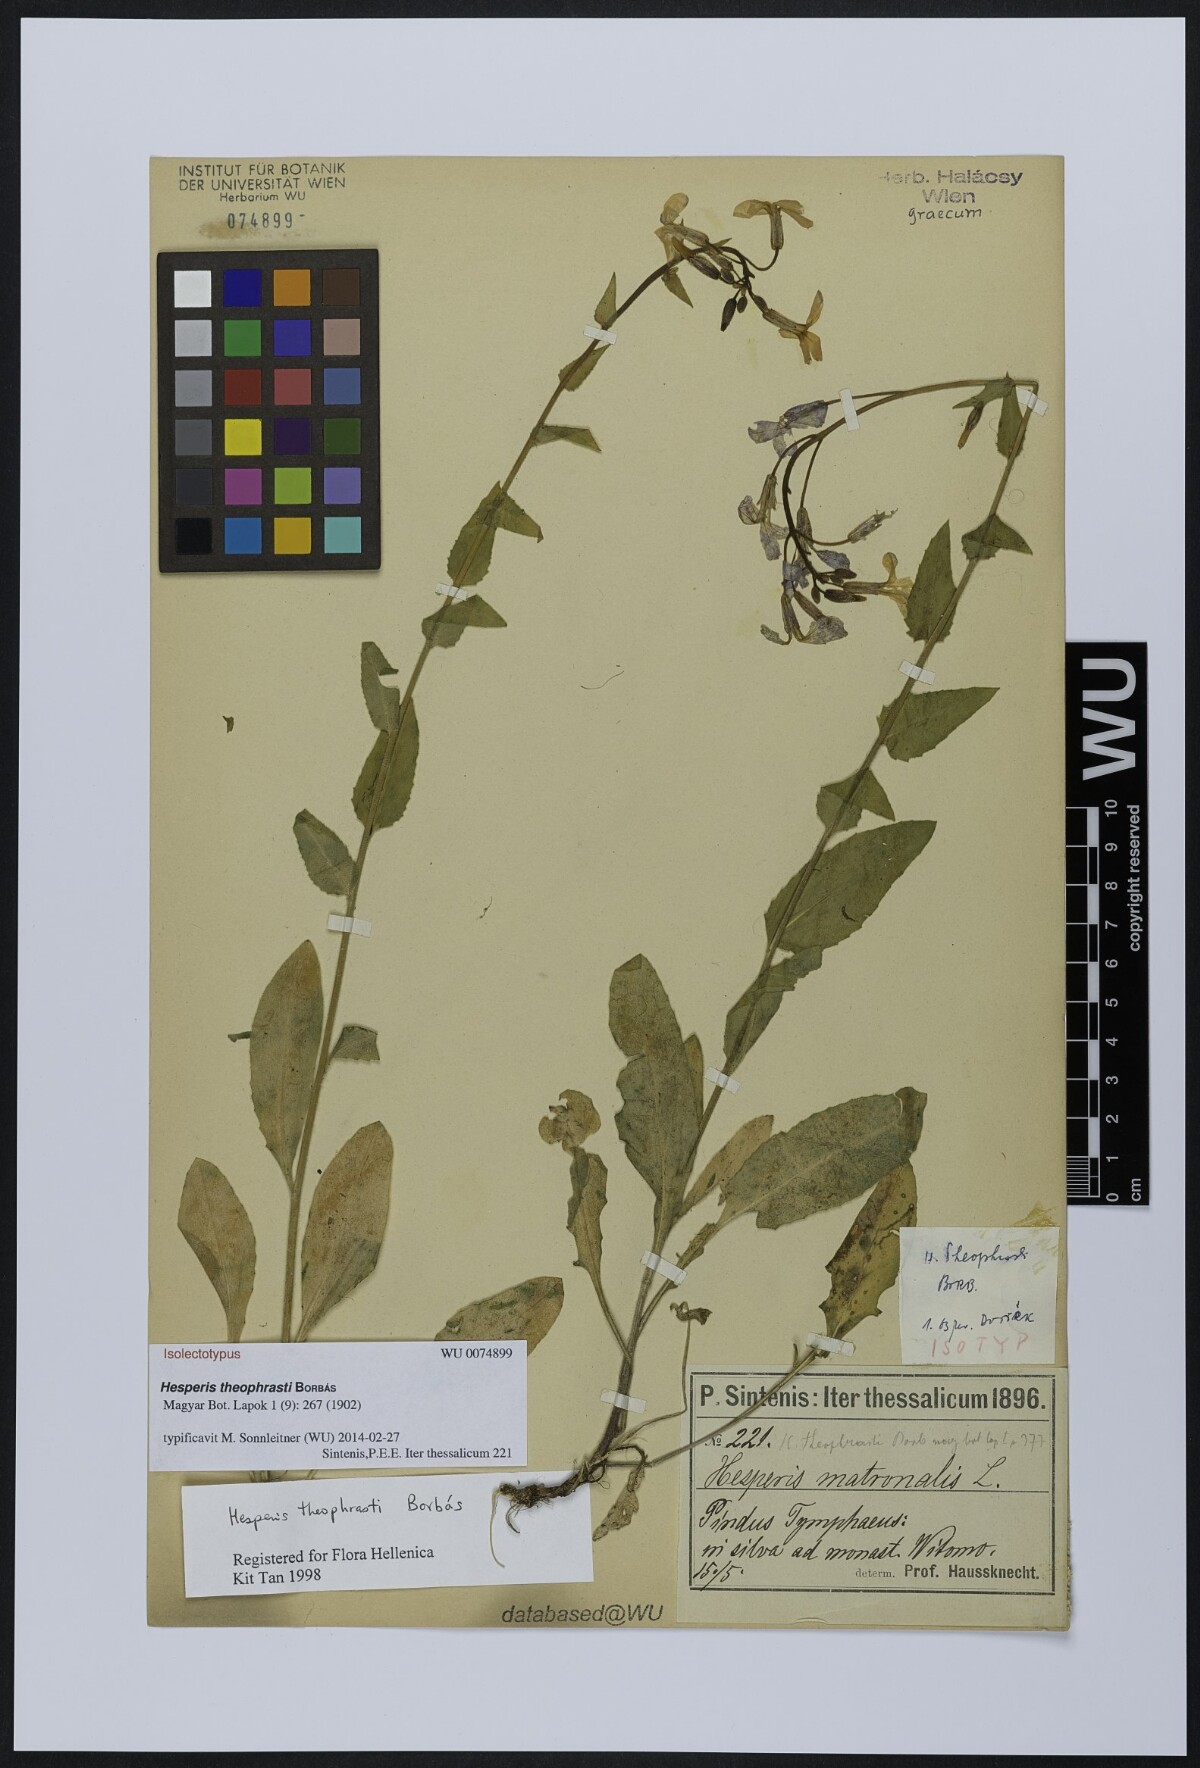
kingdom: Plantae
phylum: Tracheophyta
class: Magnoliopsida
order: Brassicales
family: Brassicaceae
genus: Hesperis
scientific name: Hesperis theophrasti
